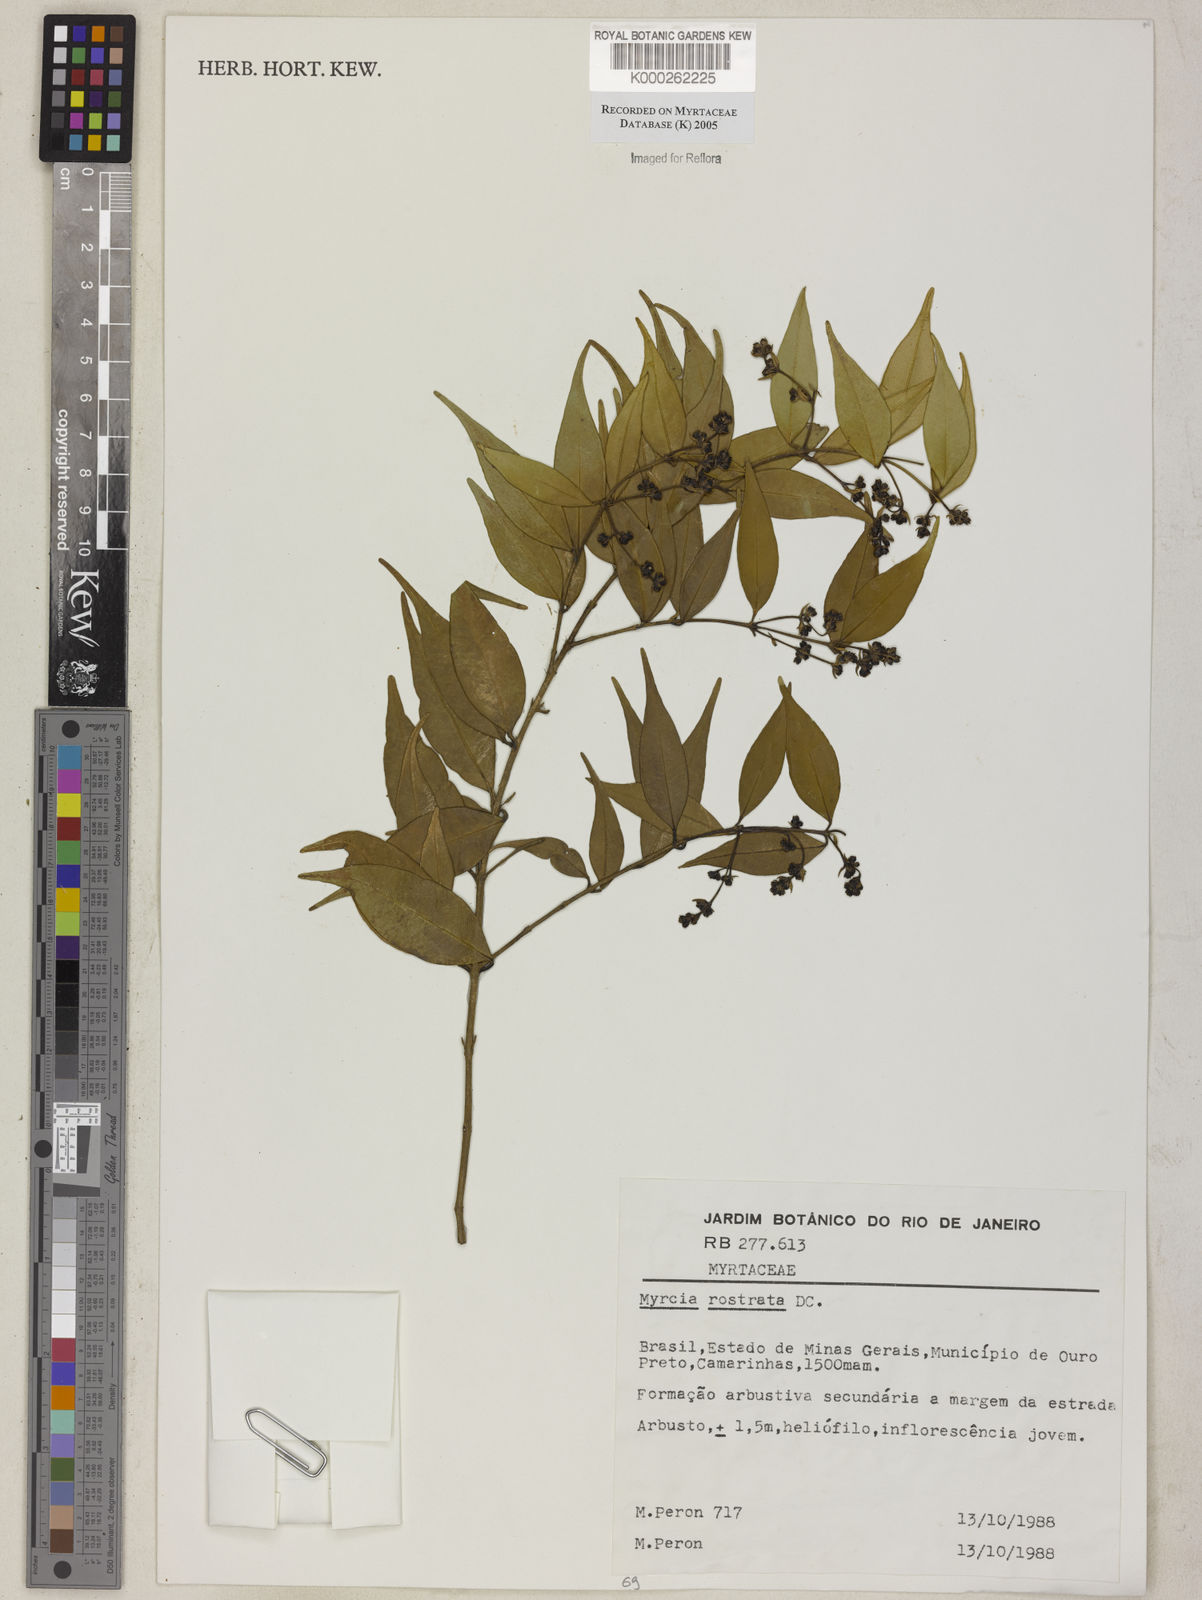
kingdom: Plantae
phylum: Tracheophyta
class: Magnoliopsida
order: Myrtales
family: Myrtaceae
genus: Myrcia
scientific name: Myrcia splendens
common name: Surinam cherry
